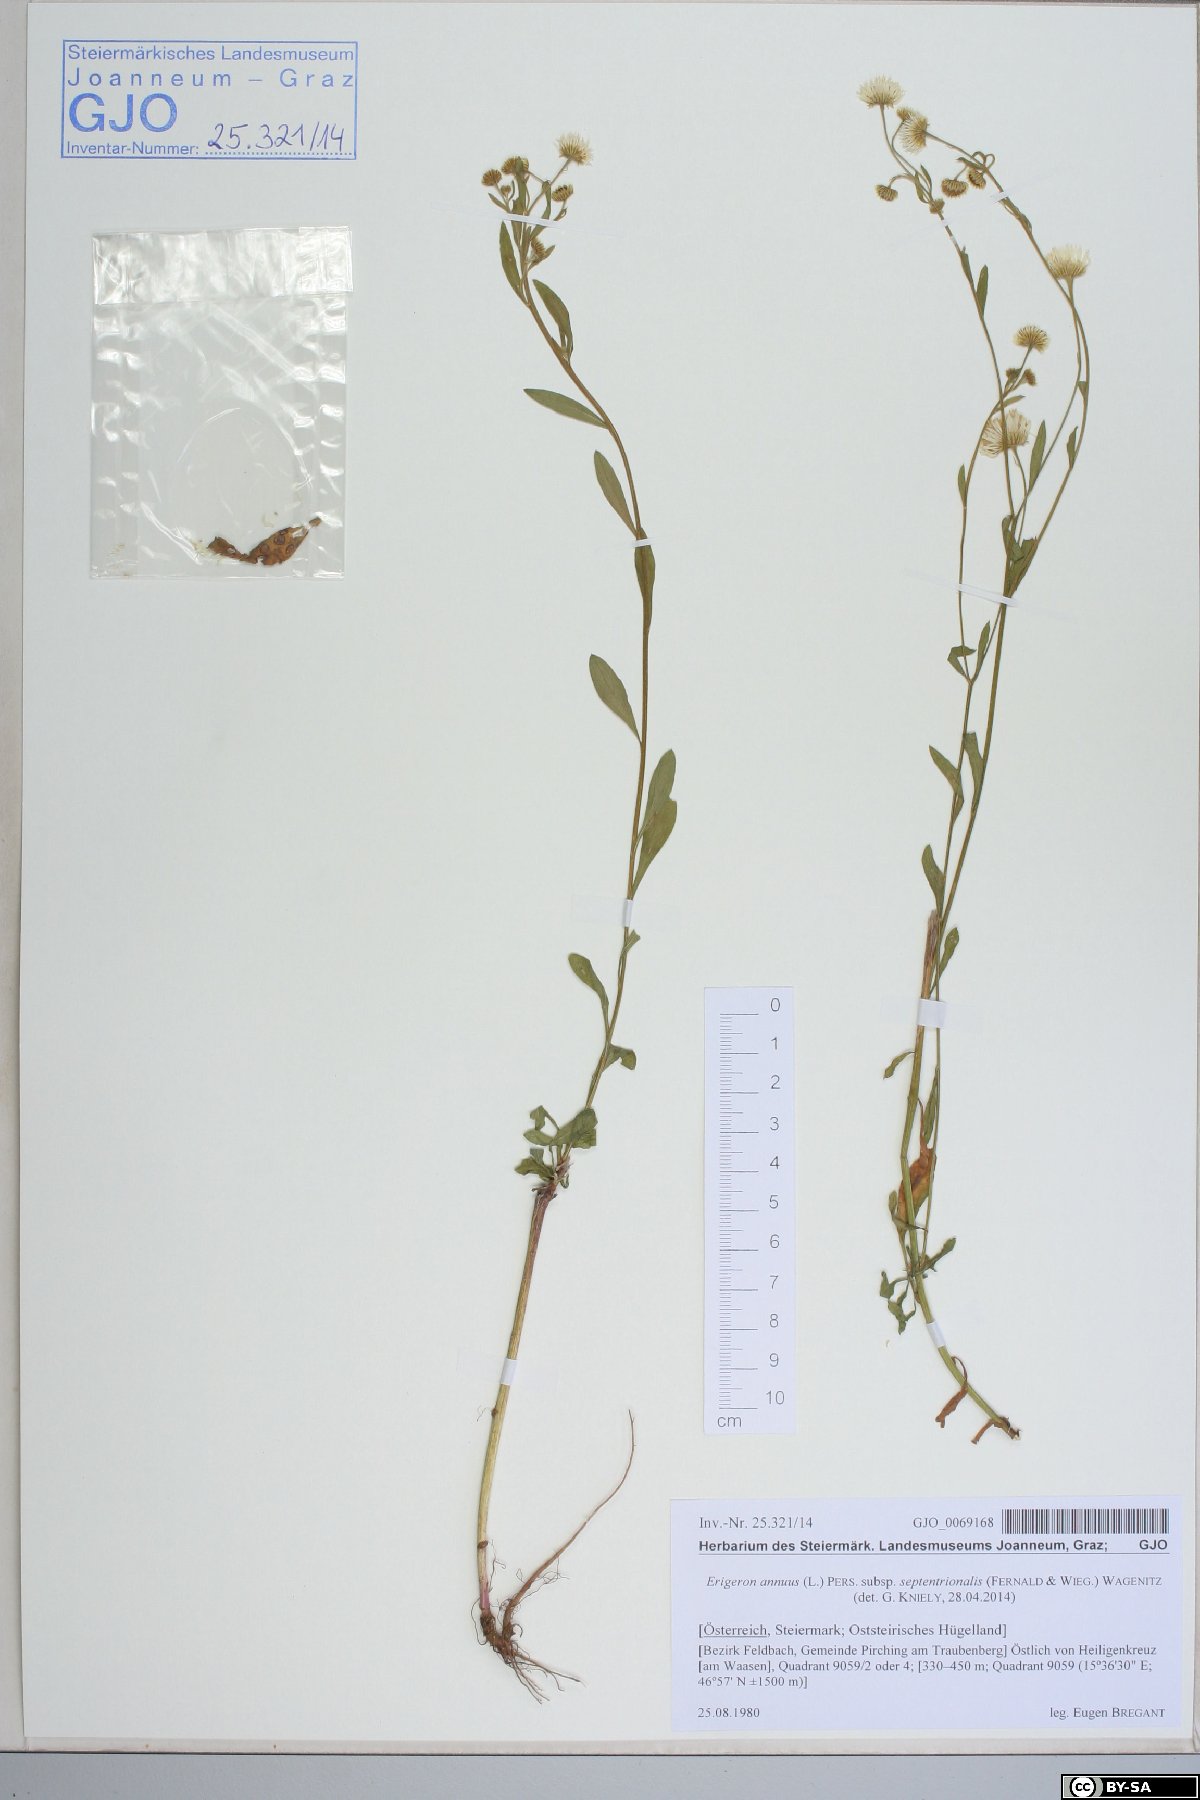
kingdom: Plantae
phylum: Tracheophyta
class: Magnoliopsida
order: Asterales
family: Asteraceae
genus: Erigeron
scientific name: Erigeron annuus
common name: Tall fleabane
